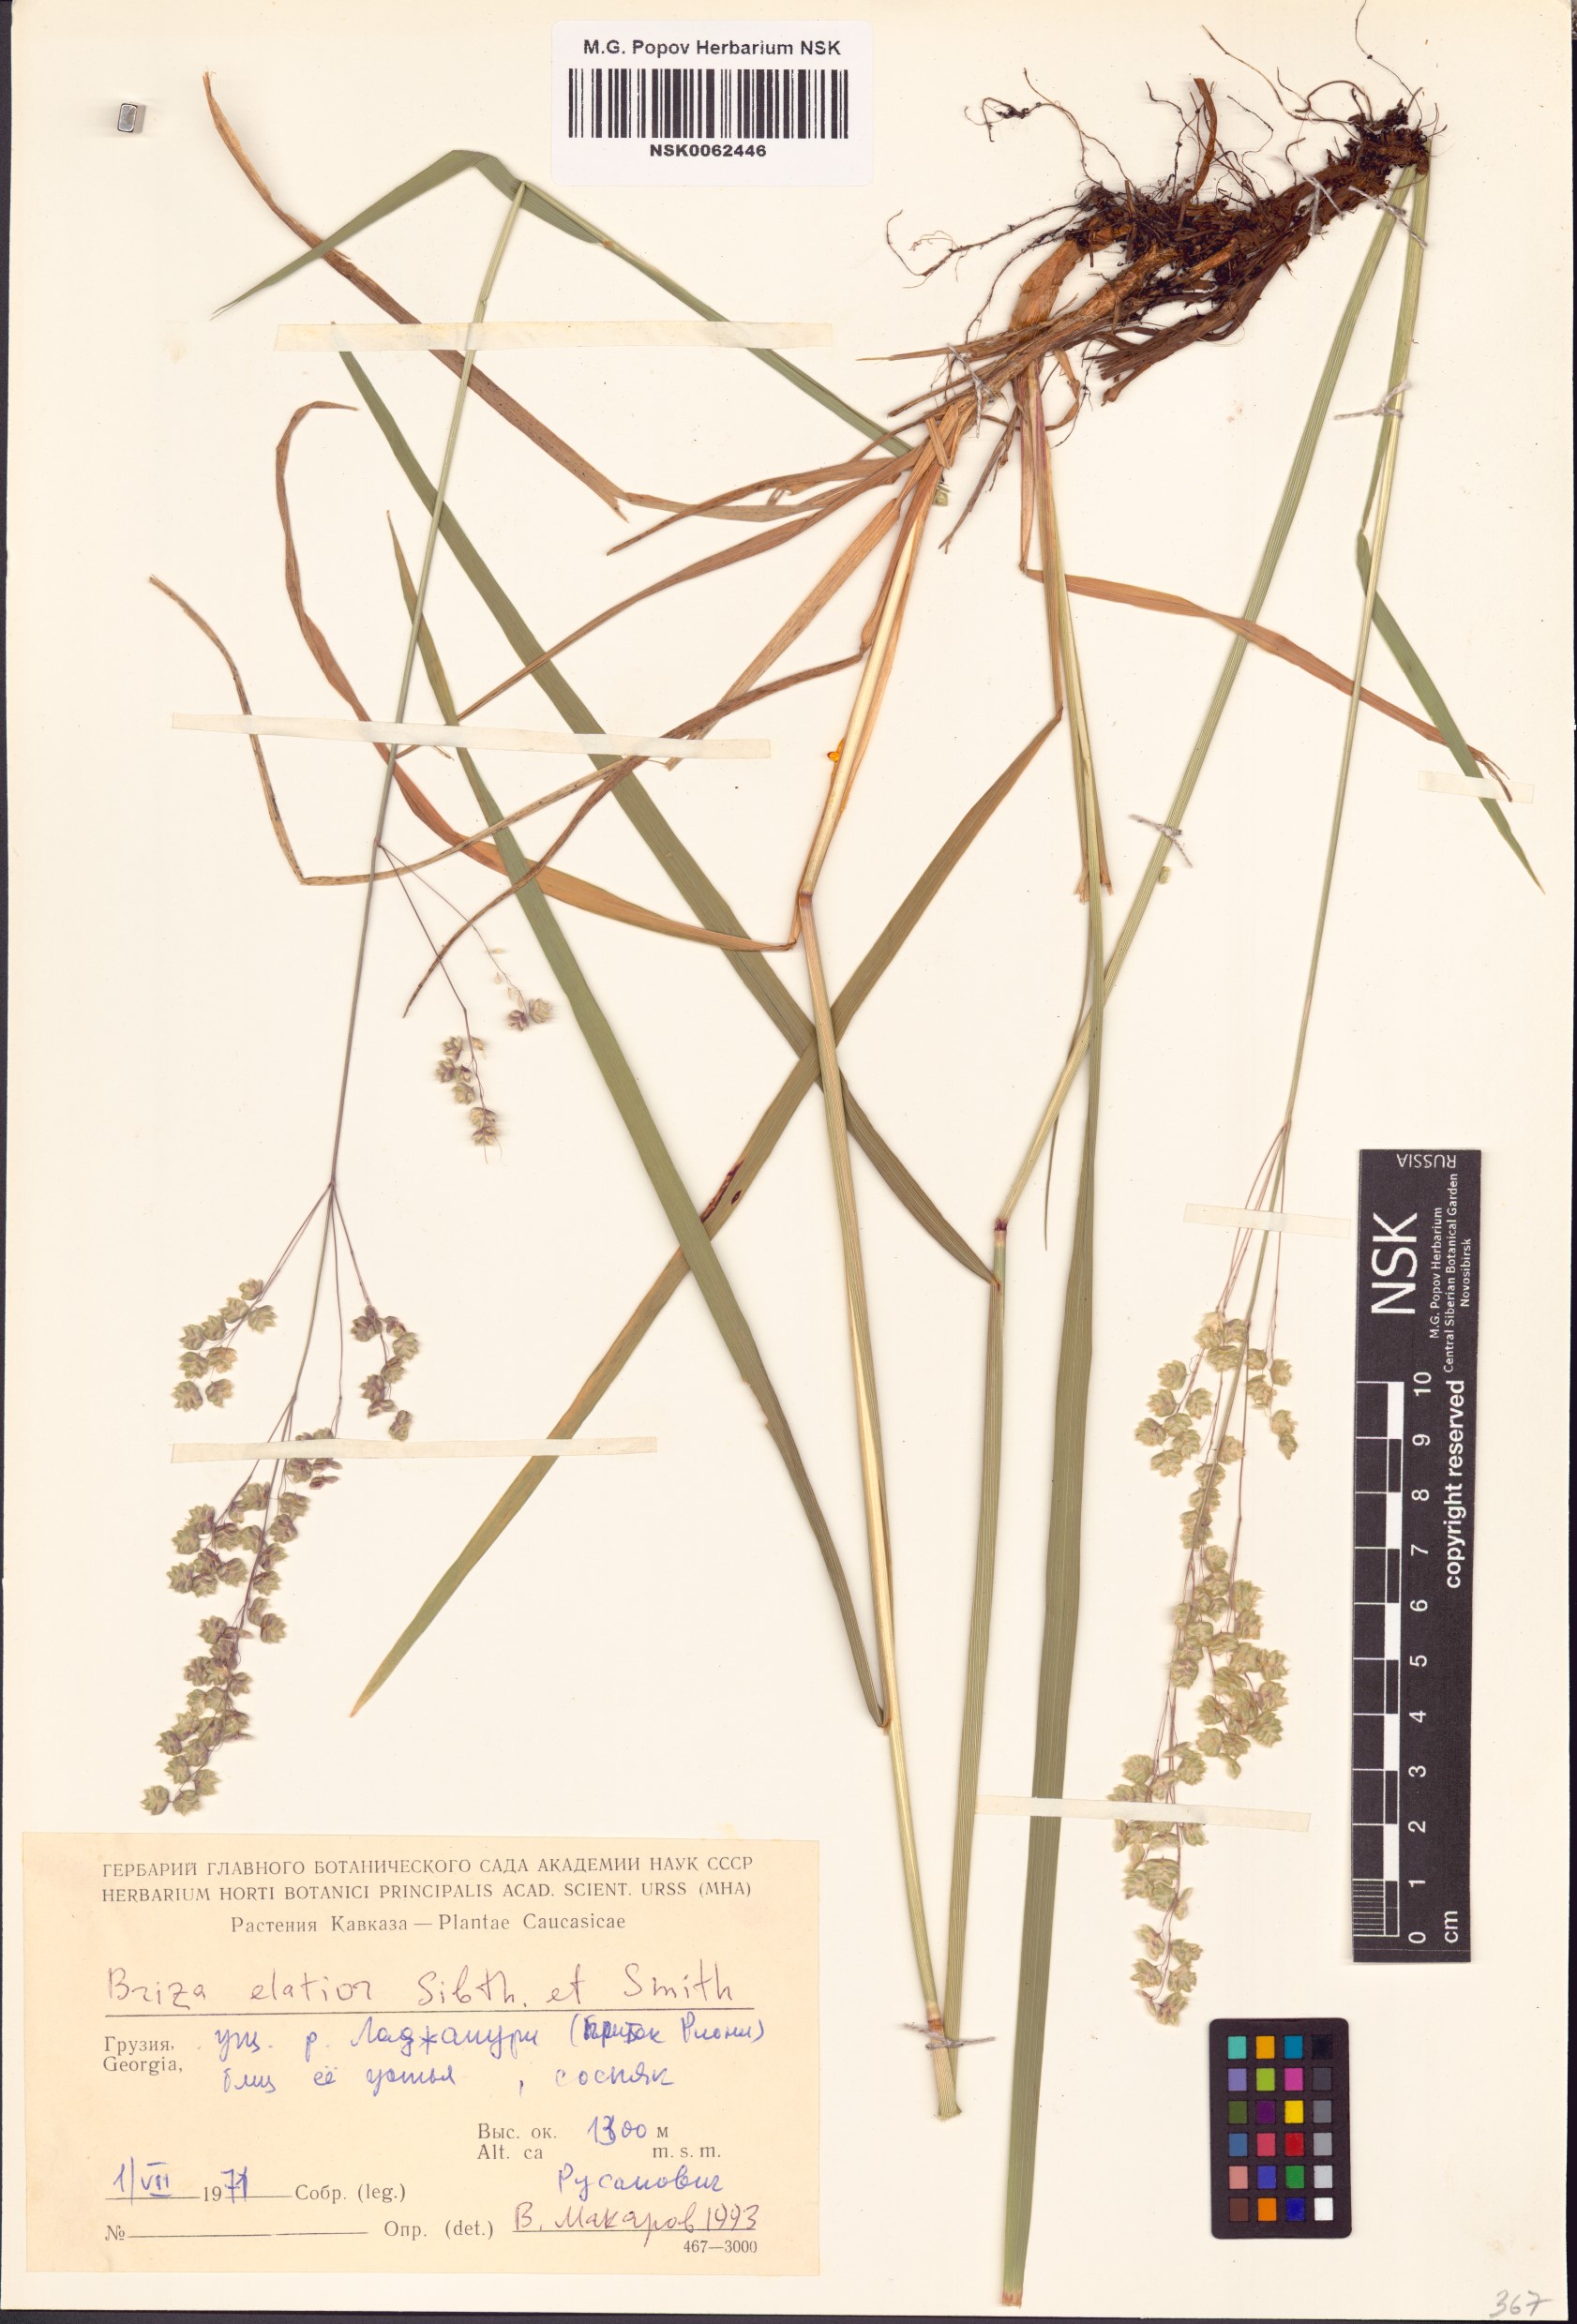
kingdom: Plantae
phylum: Tracheophyta
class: Liliopsida
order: Poales
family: Poaceae
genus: Briza
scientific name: Briza media
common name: Quaking grass
